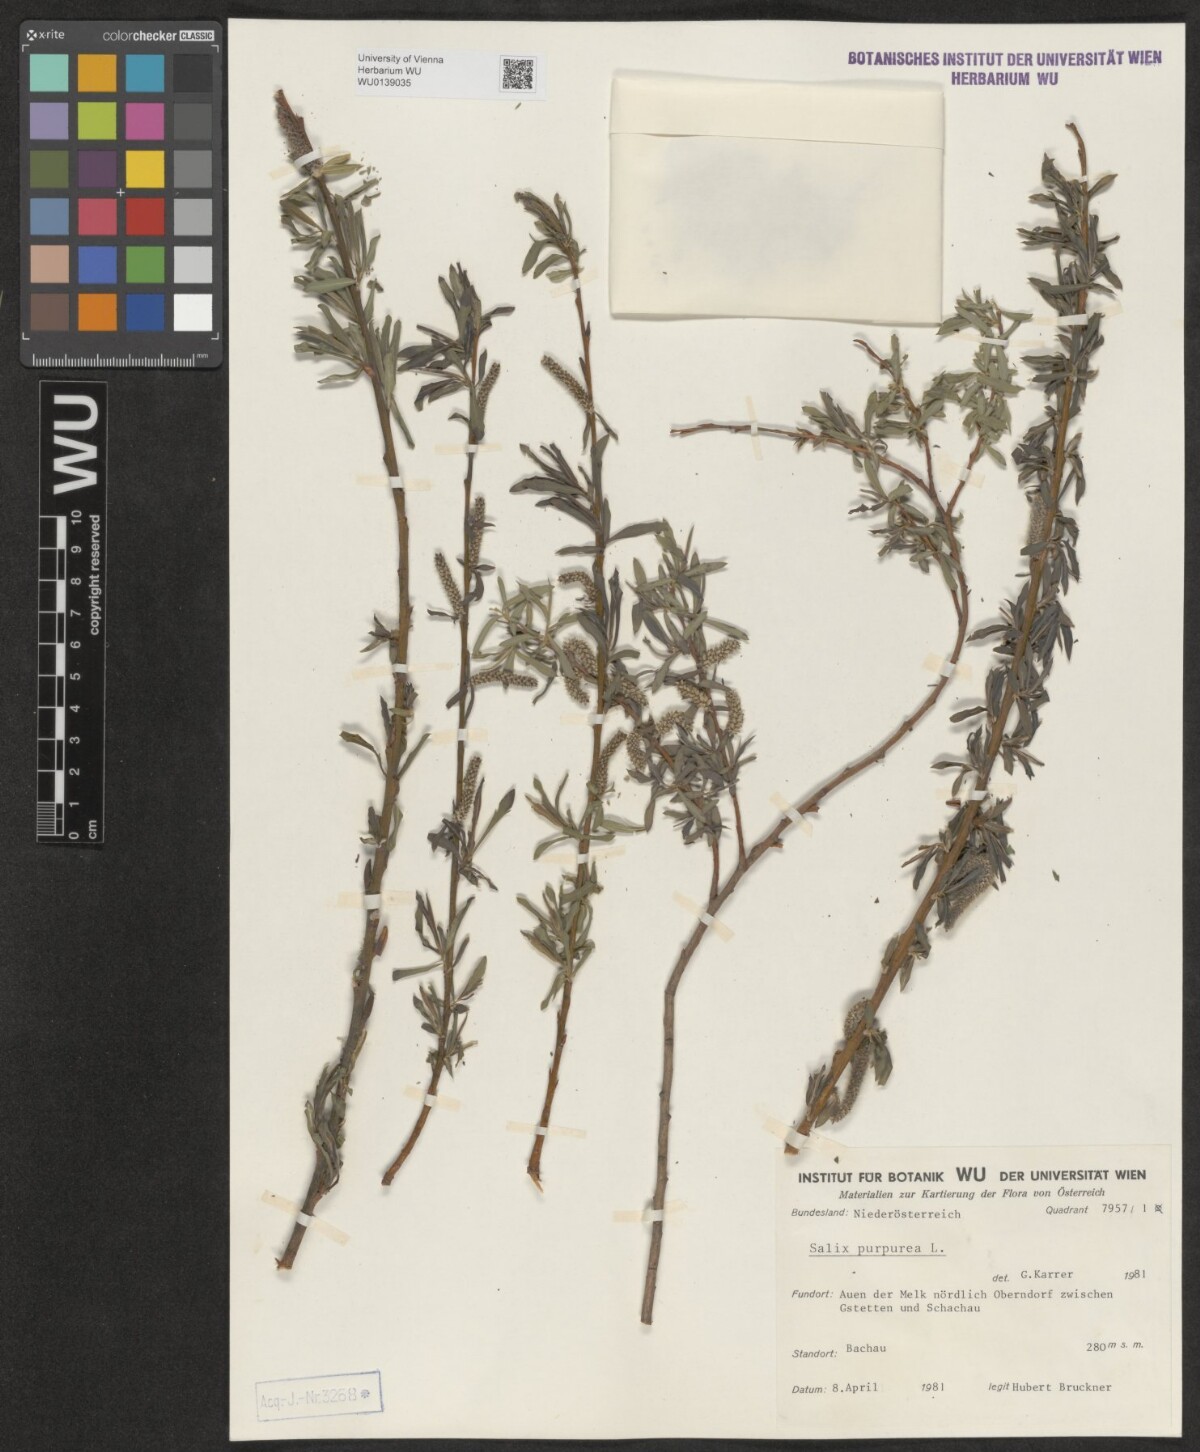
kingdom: Plantae
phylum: Tracheophyta
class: Magnoliopsida
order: Malpighiales
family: Salicaceae
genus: Salix
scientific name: Salix purpurea
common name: Purple willow
